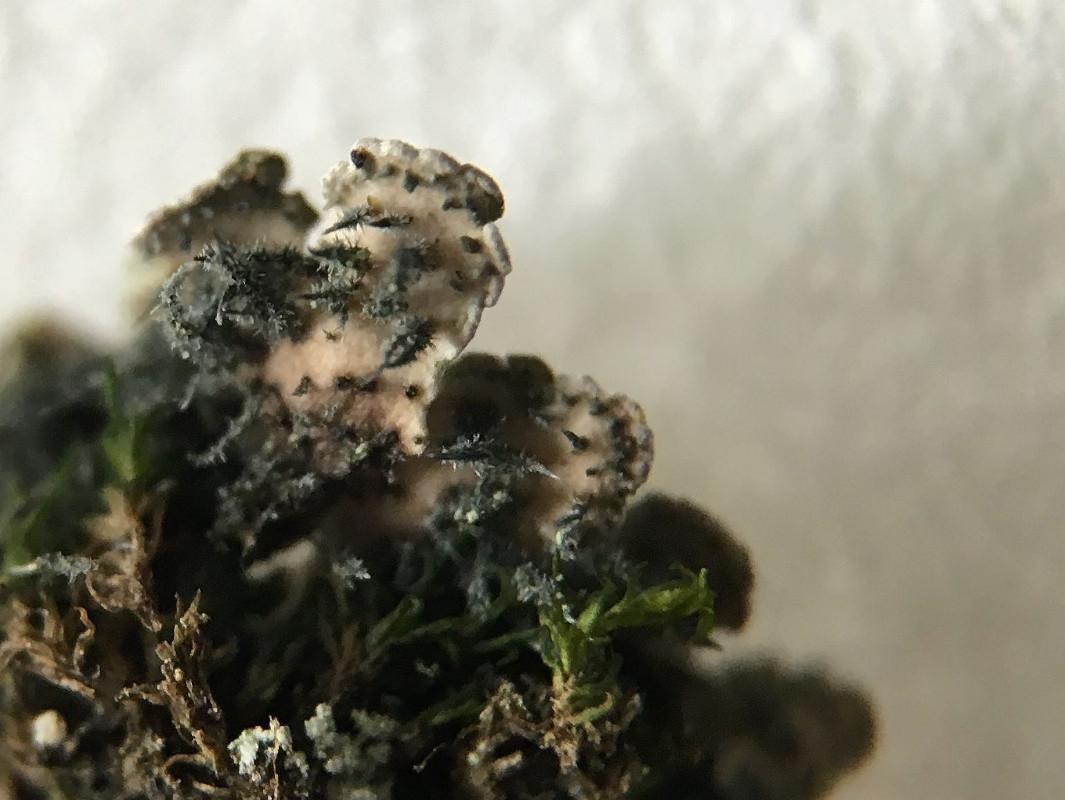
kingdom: Fungi
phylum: Ascomycota
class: Lecanoromycetes
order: Caliciales
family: Physciaceae
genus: Physconia
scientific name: Physconia perisidiosa
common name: liden dugrosetlav
